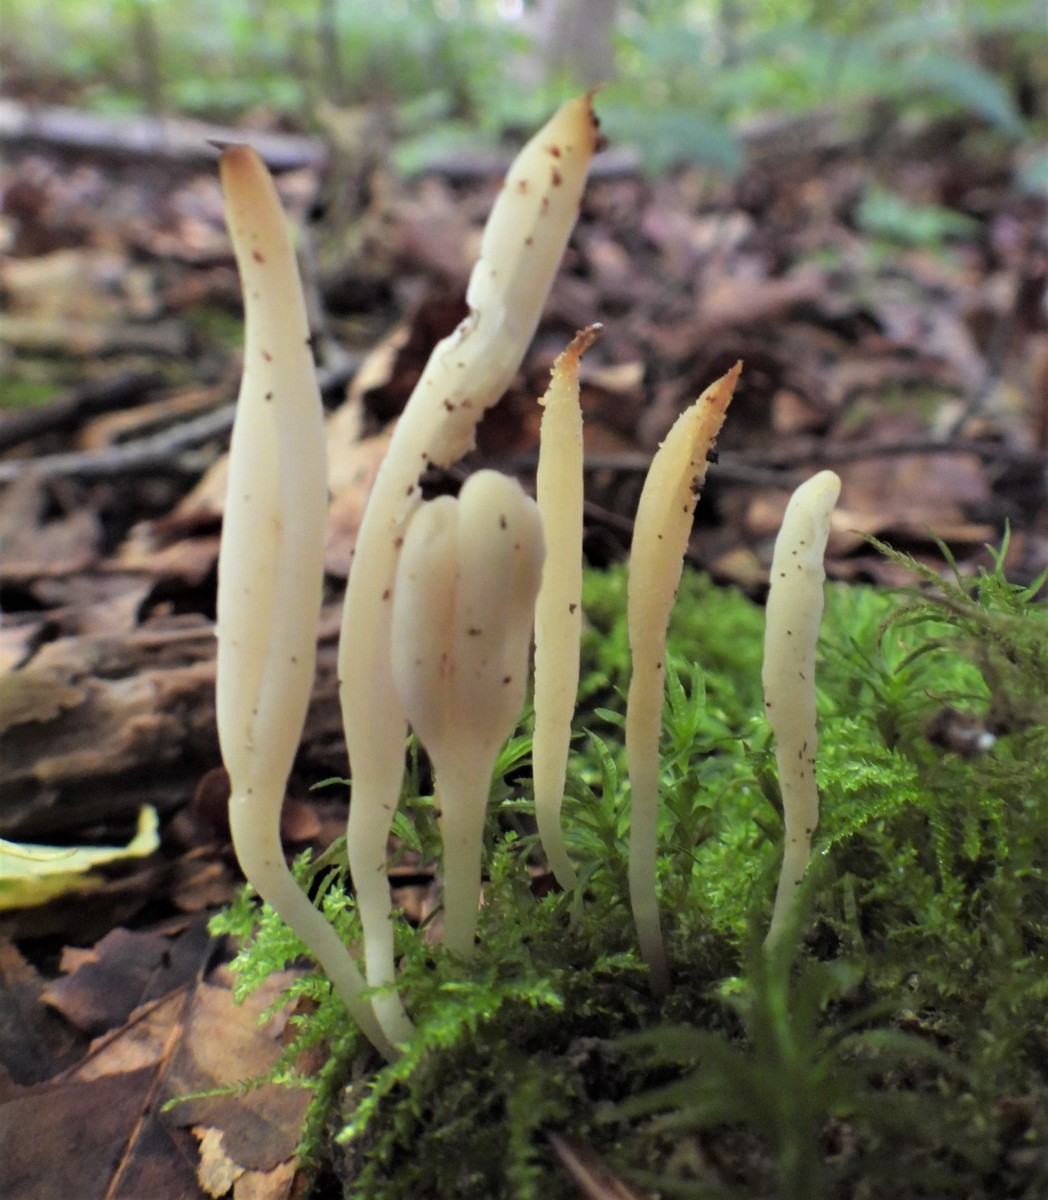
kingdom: Fungi
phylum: Basidiomycota
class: Agaricomycetes
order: Agaricales
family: Clavariaceae
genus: Clavaria
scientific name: Clavaria falcata
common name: hvid køllesvamp
